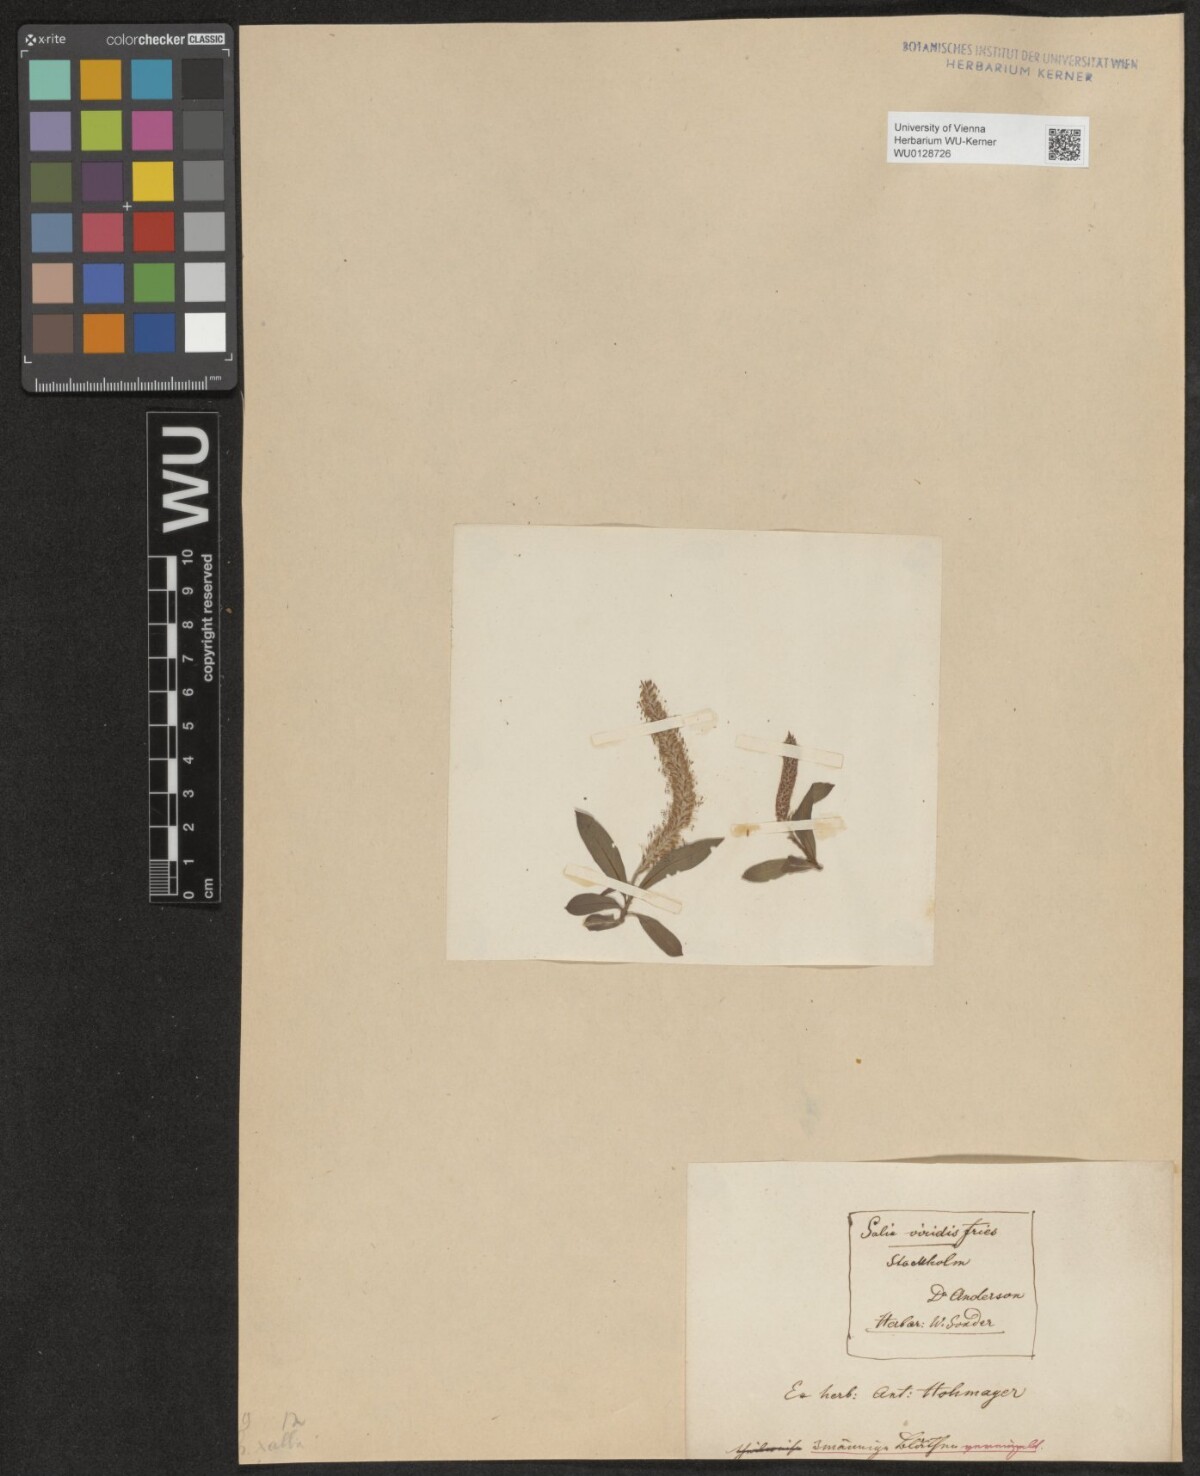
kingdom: Plantae
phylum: Tracheophyta
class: Magnoliopsida
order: Malpighiales
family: Salicaceae
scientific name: Salicaceae
